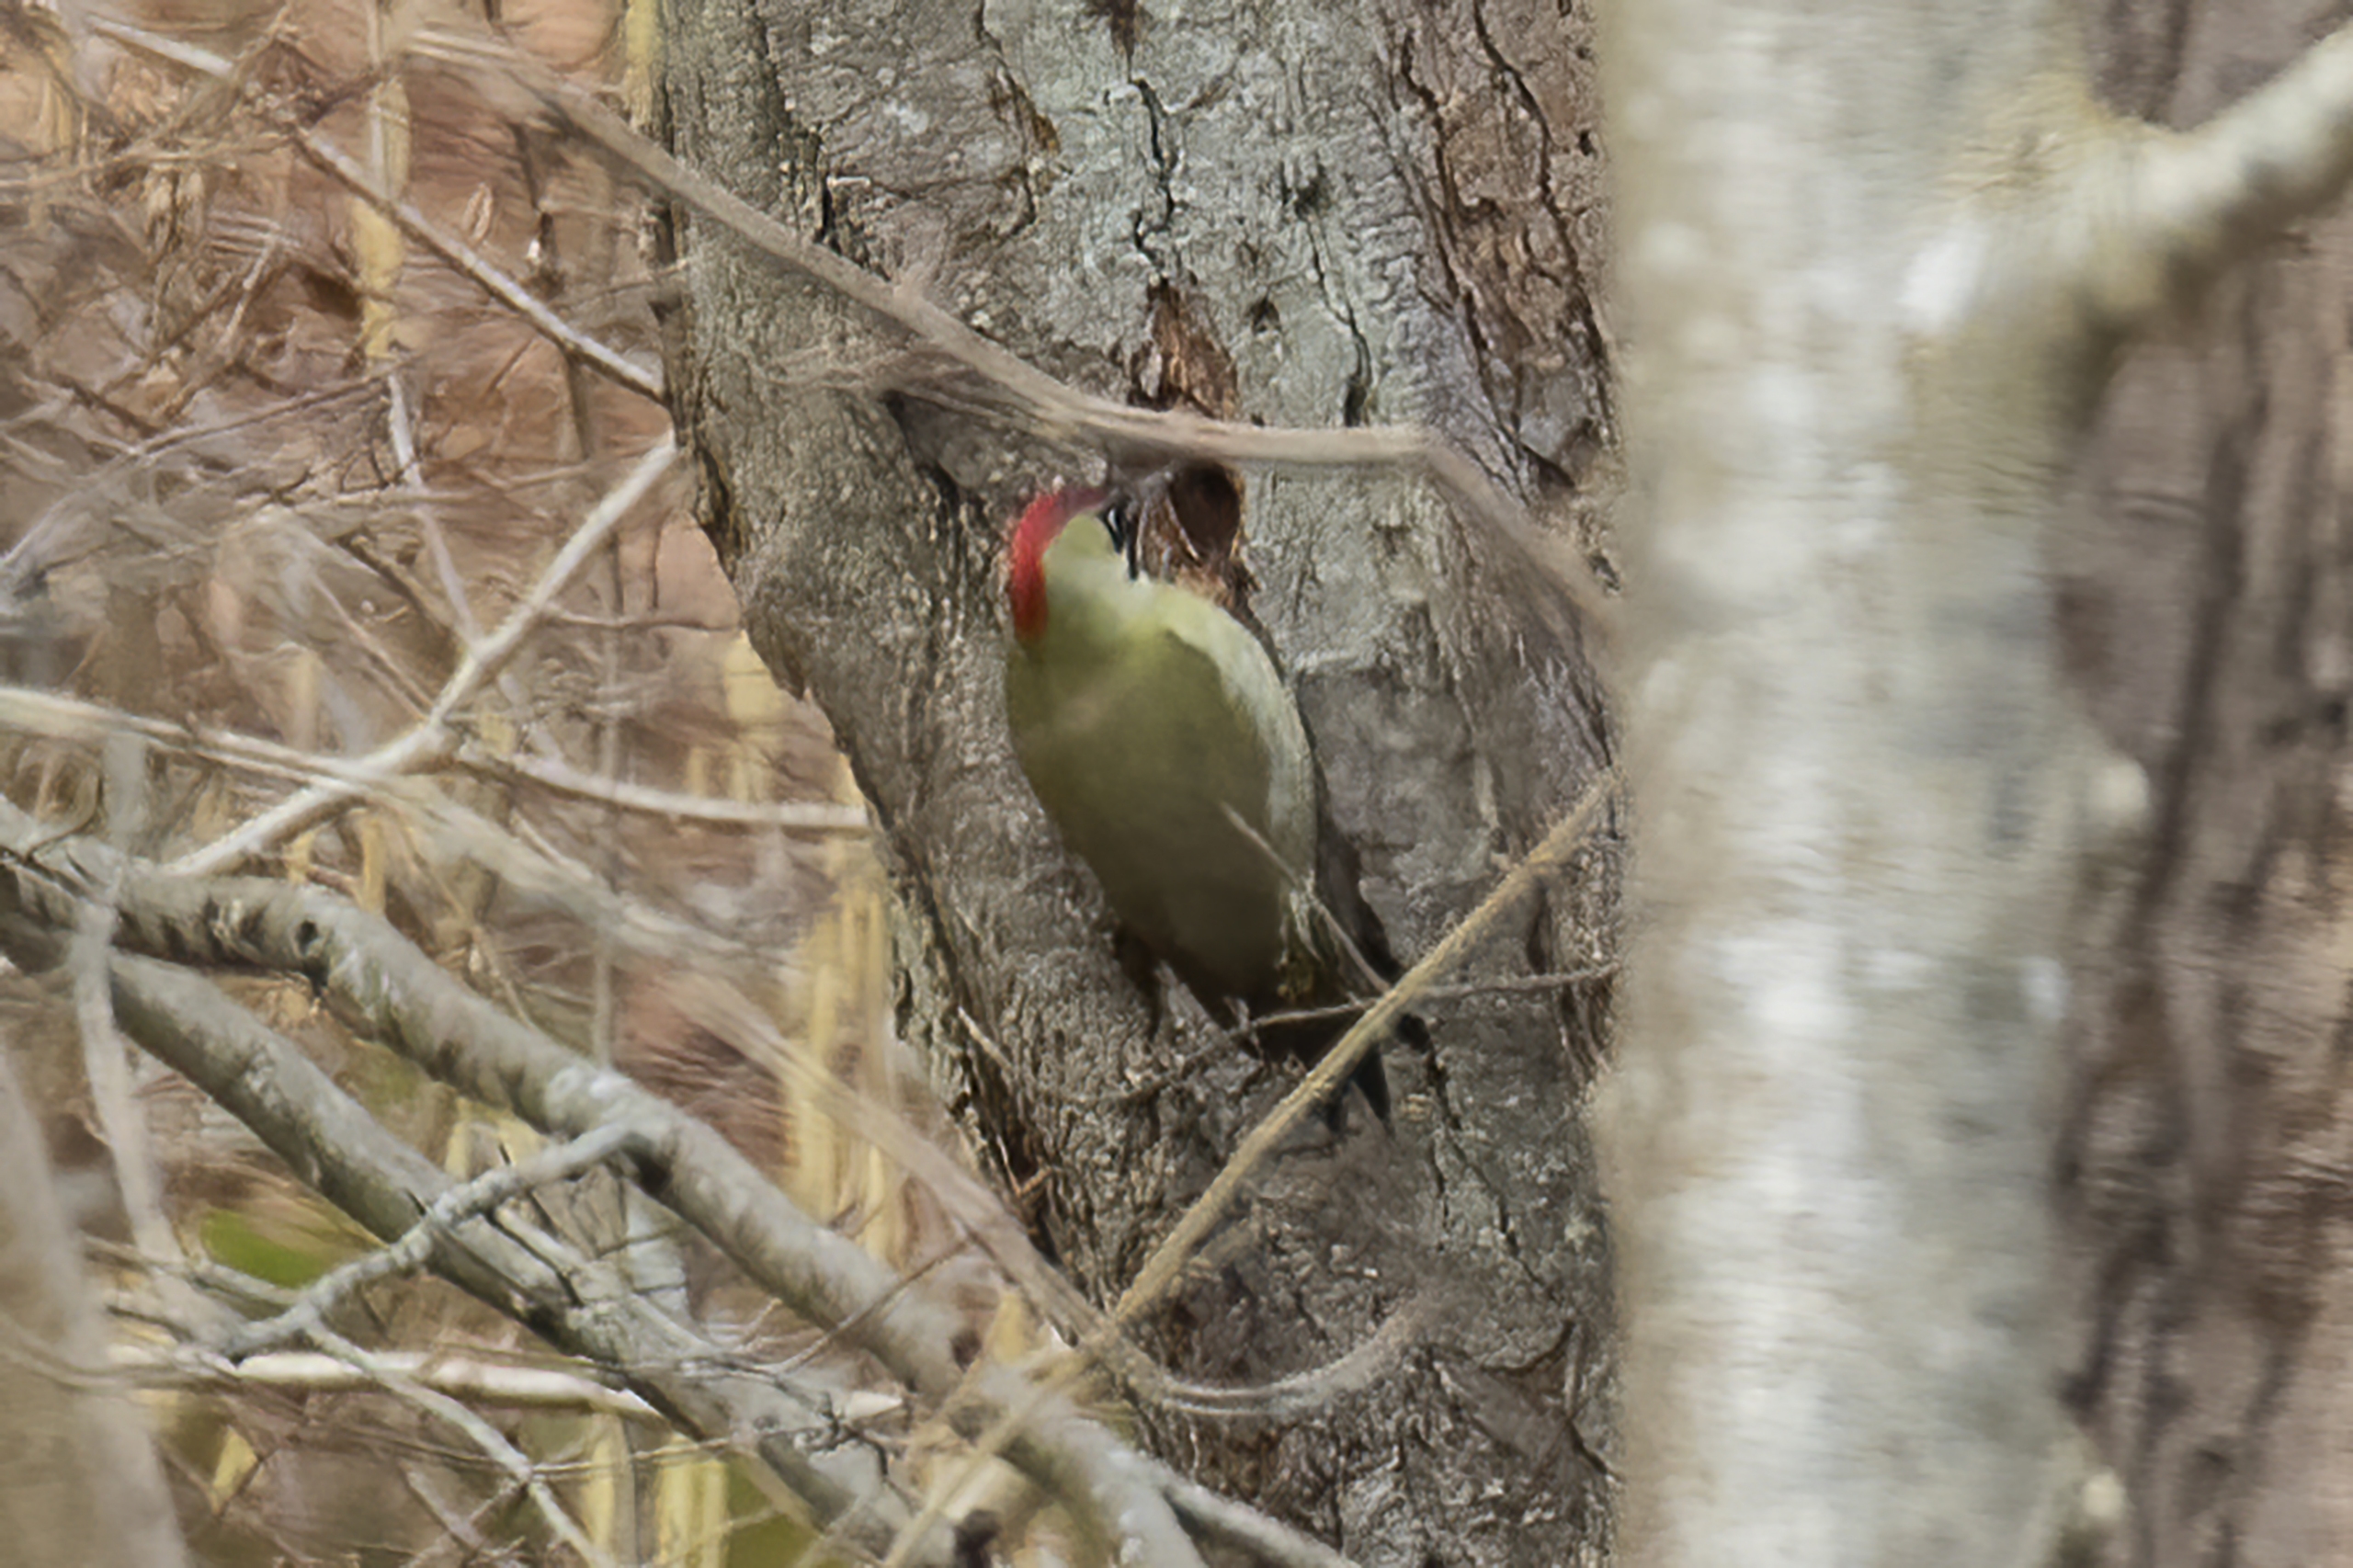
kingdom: Animalia
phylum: Chordata
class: Aves
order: Piciformes
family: Picidae
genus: Picus
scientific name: Picus viridis
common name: Grønspætte
